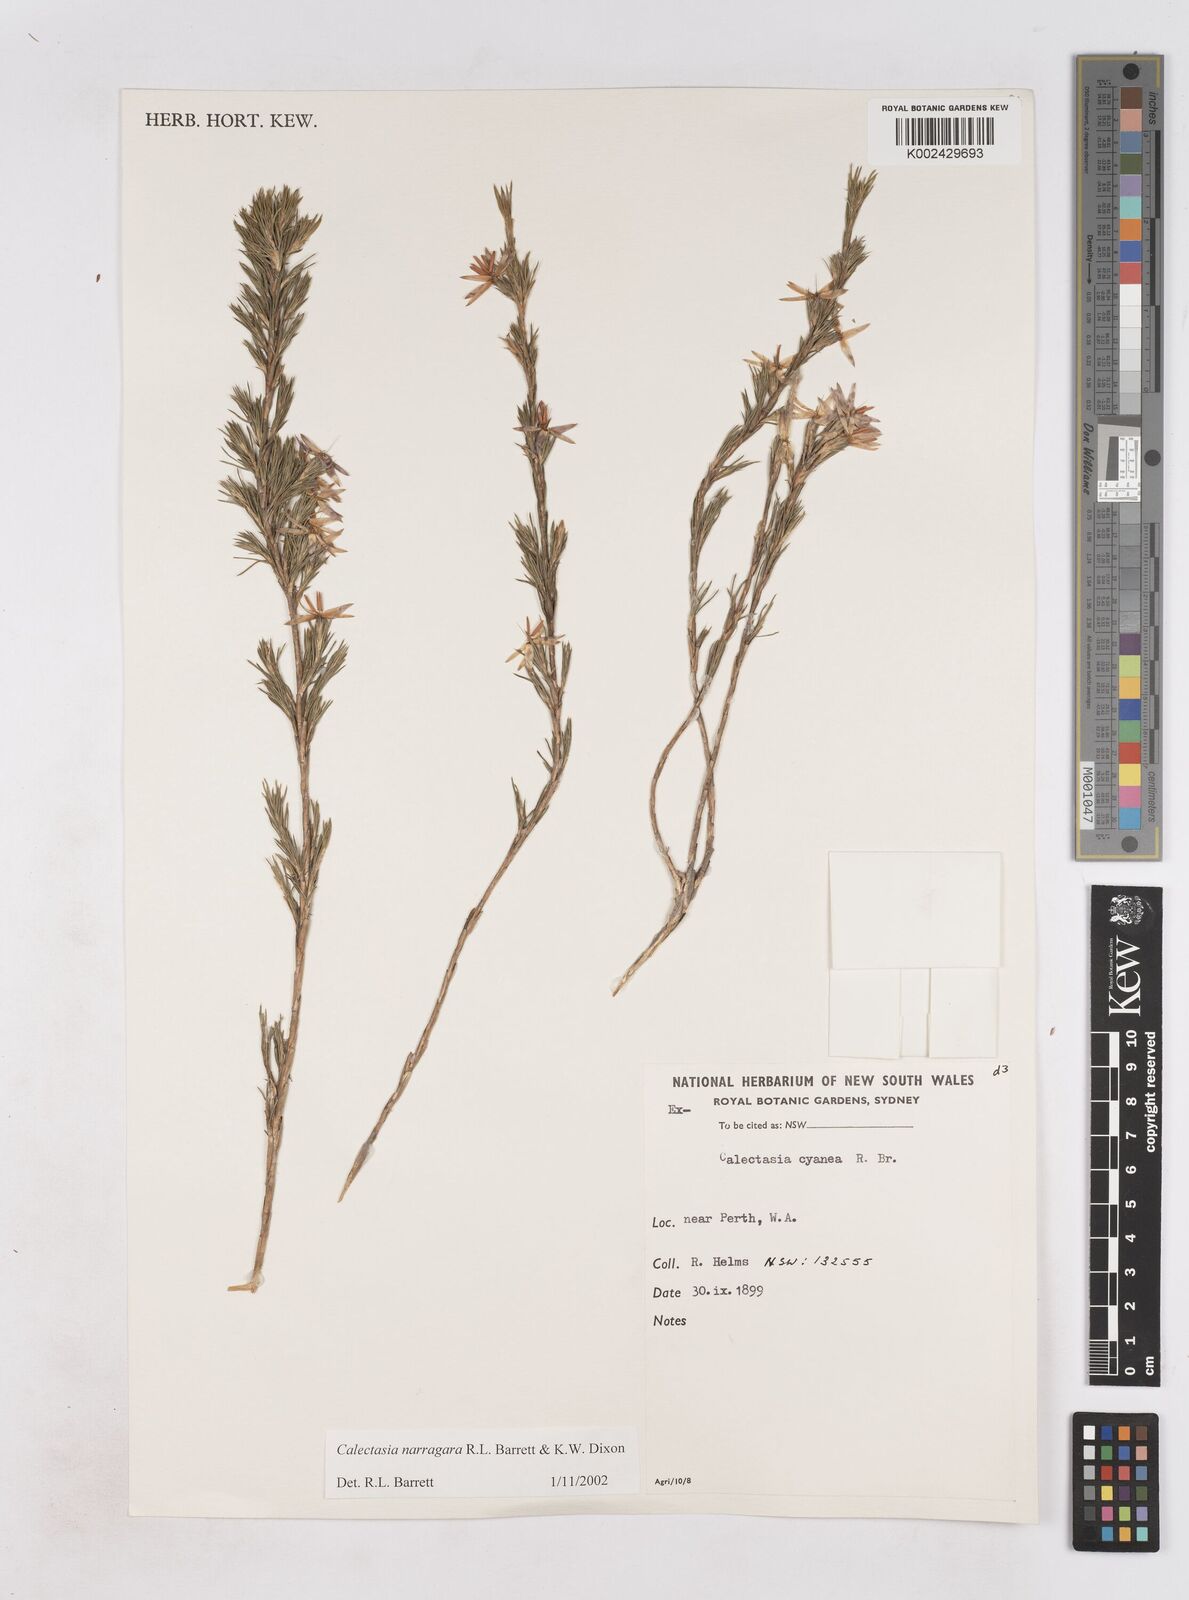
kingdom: Plantae
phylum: Tracheophyta
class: Liliopsida
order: Arecales
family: Dasypogonaceae
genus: Calectasia
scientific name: Calectasia narragara
